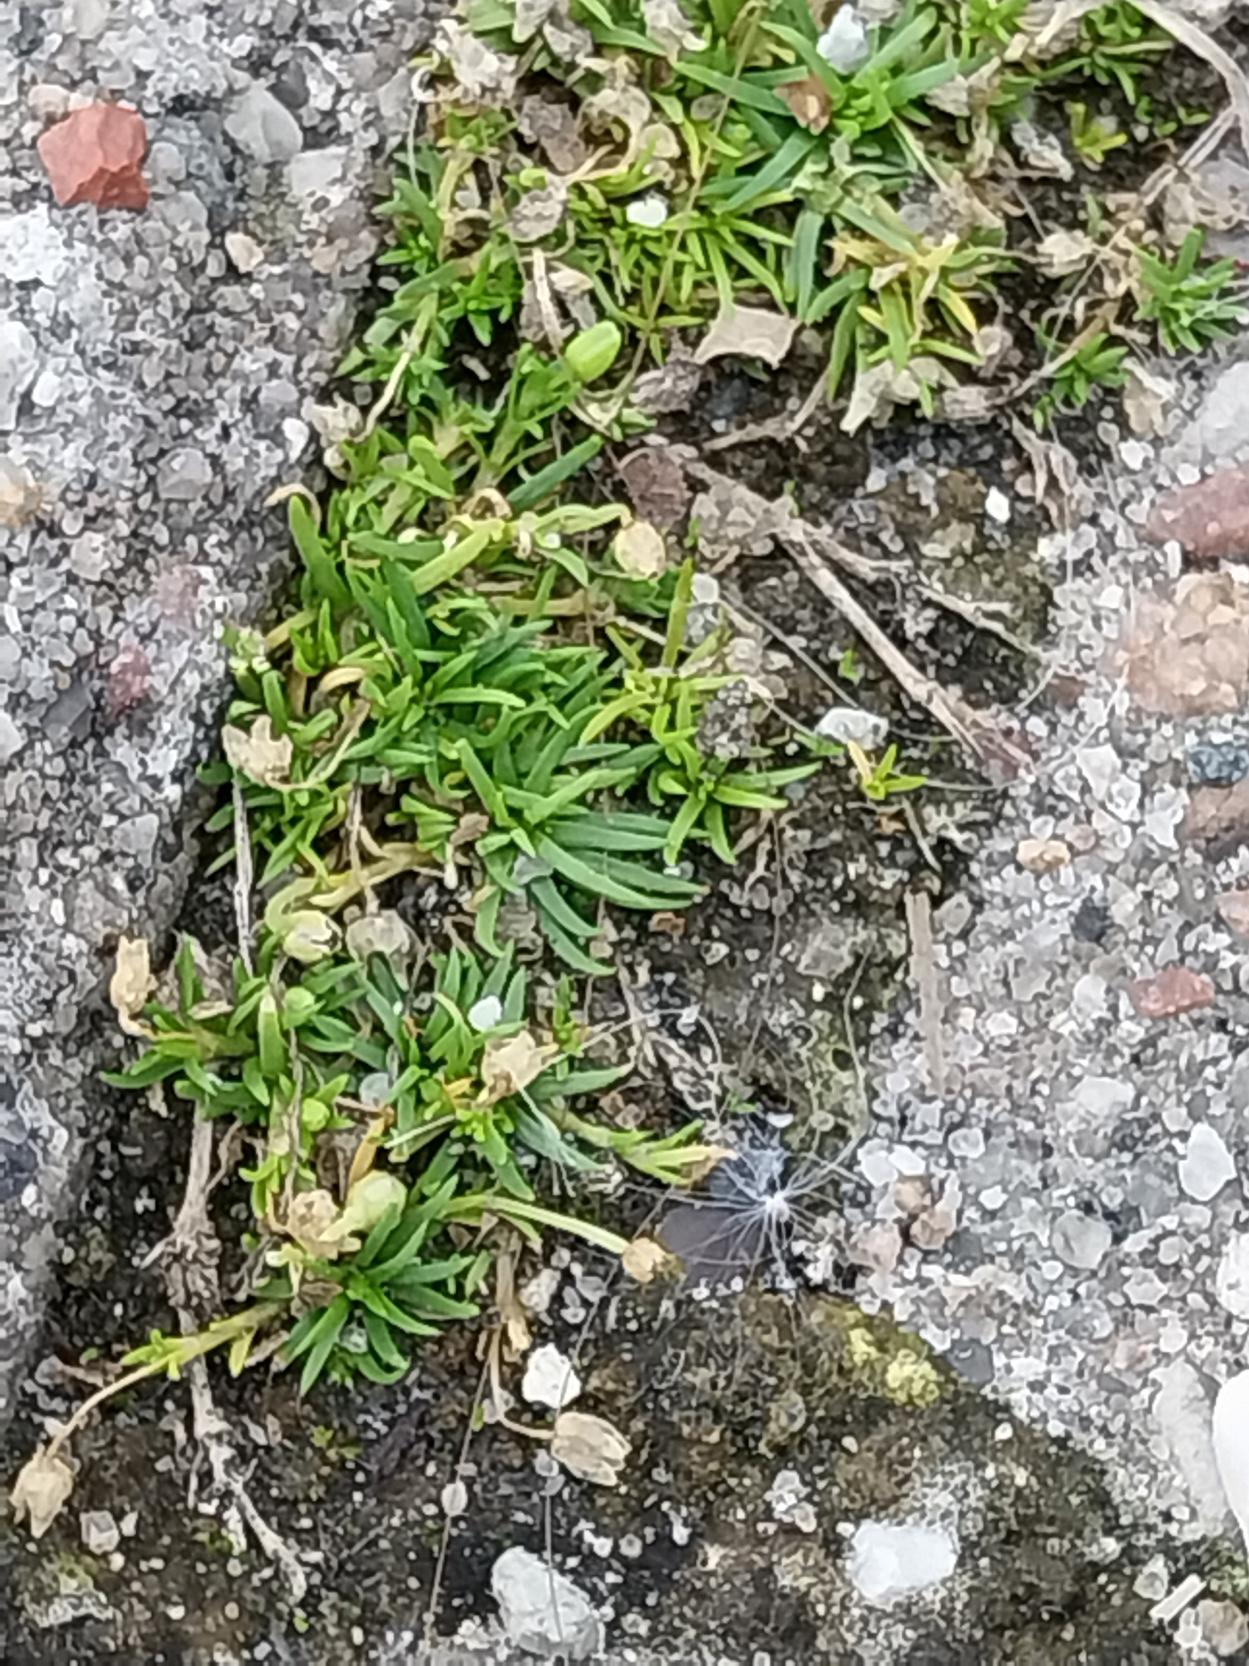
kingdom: Plantae
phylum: Tracheophyta
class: Magnoliopsida
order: Caryophyllales
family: Caryophyllaceae
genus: Sagina
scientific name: Sagina procumbens
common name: Almindelig firling
